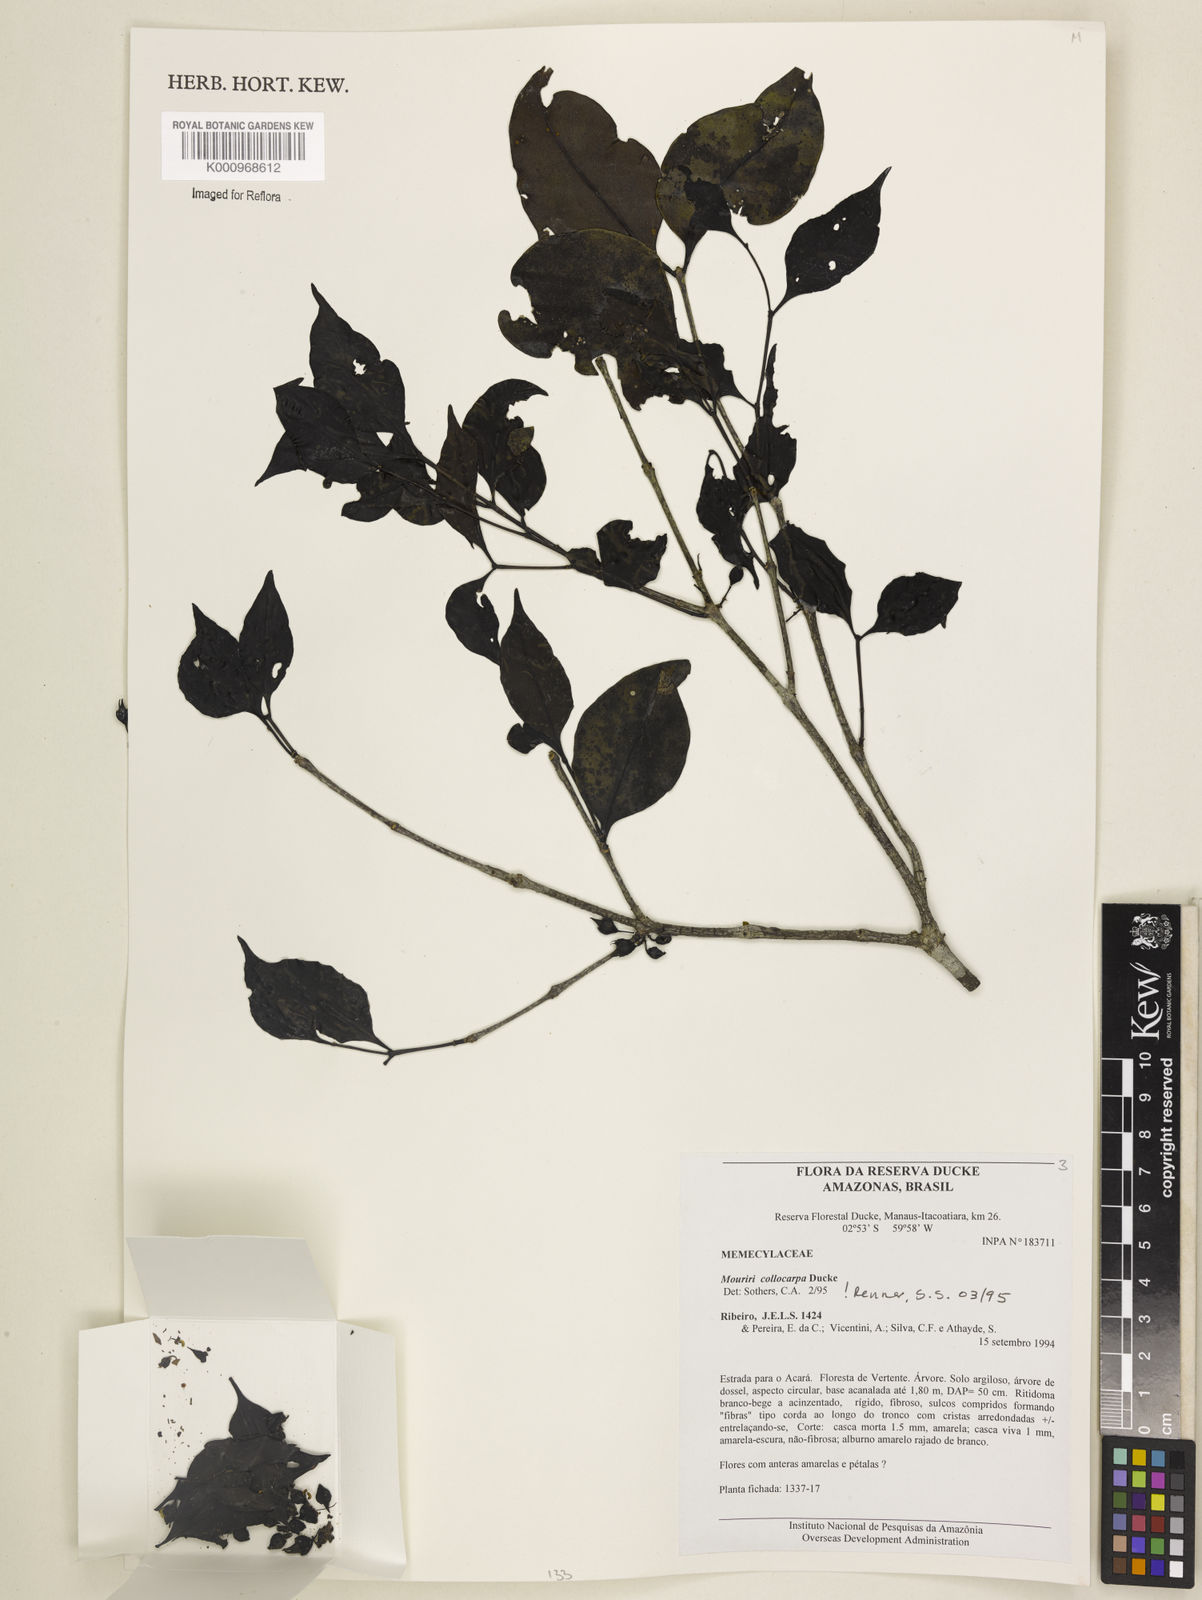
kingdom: Plantae
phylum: Tracheophyta
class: Magnoliopsida
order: Myrtales
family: Melastomataceae
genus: Mouriri
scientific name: Mouriri collocarpa
